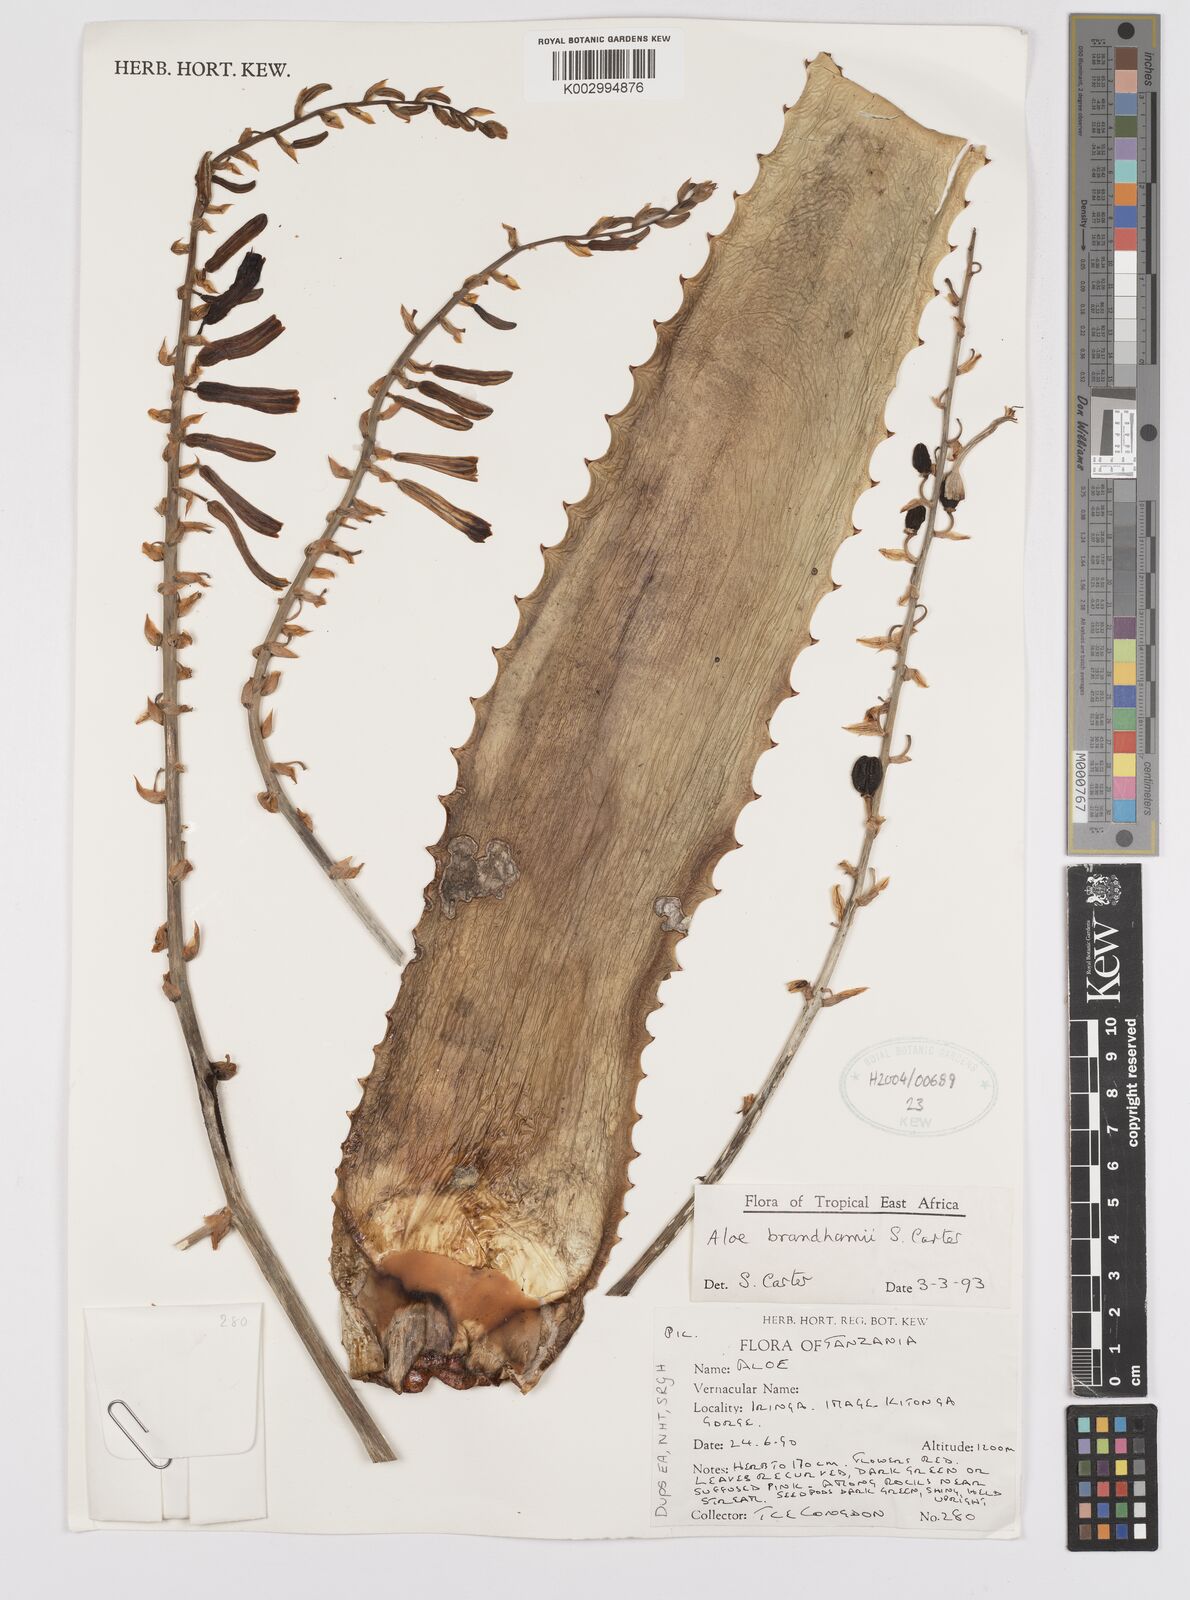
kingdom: Plantae
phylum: Tracheophyta
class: Liliopsida
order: Asparagales
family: Asphodelaceae
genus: Aloe
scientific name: Aloe brandhamii
